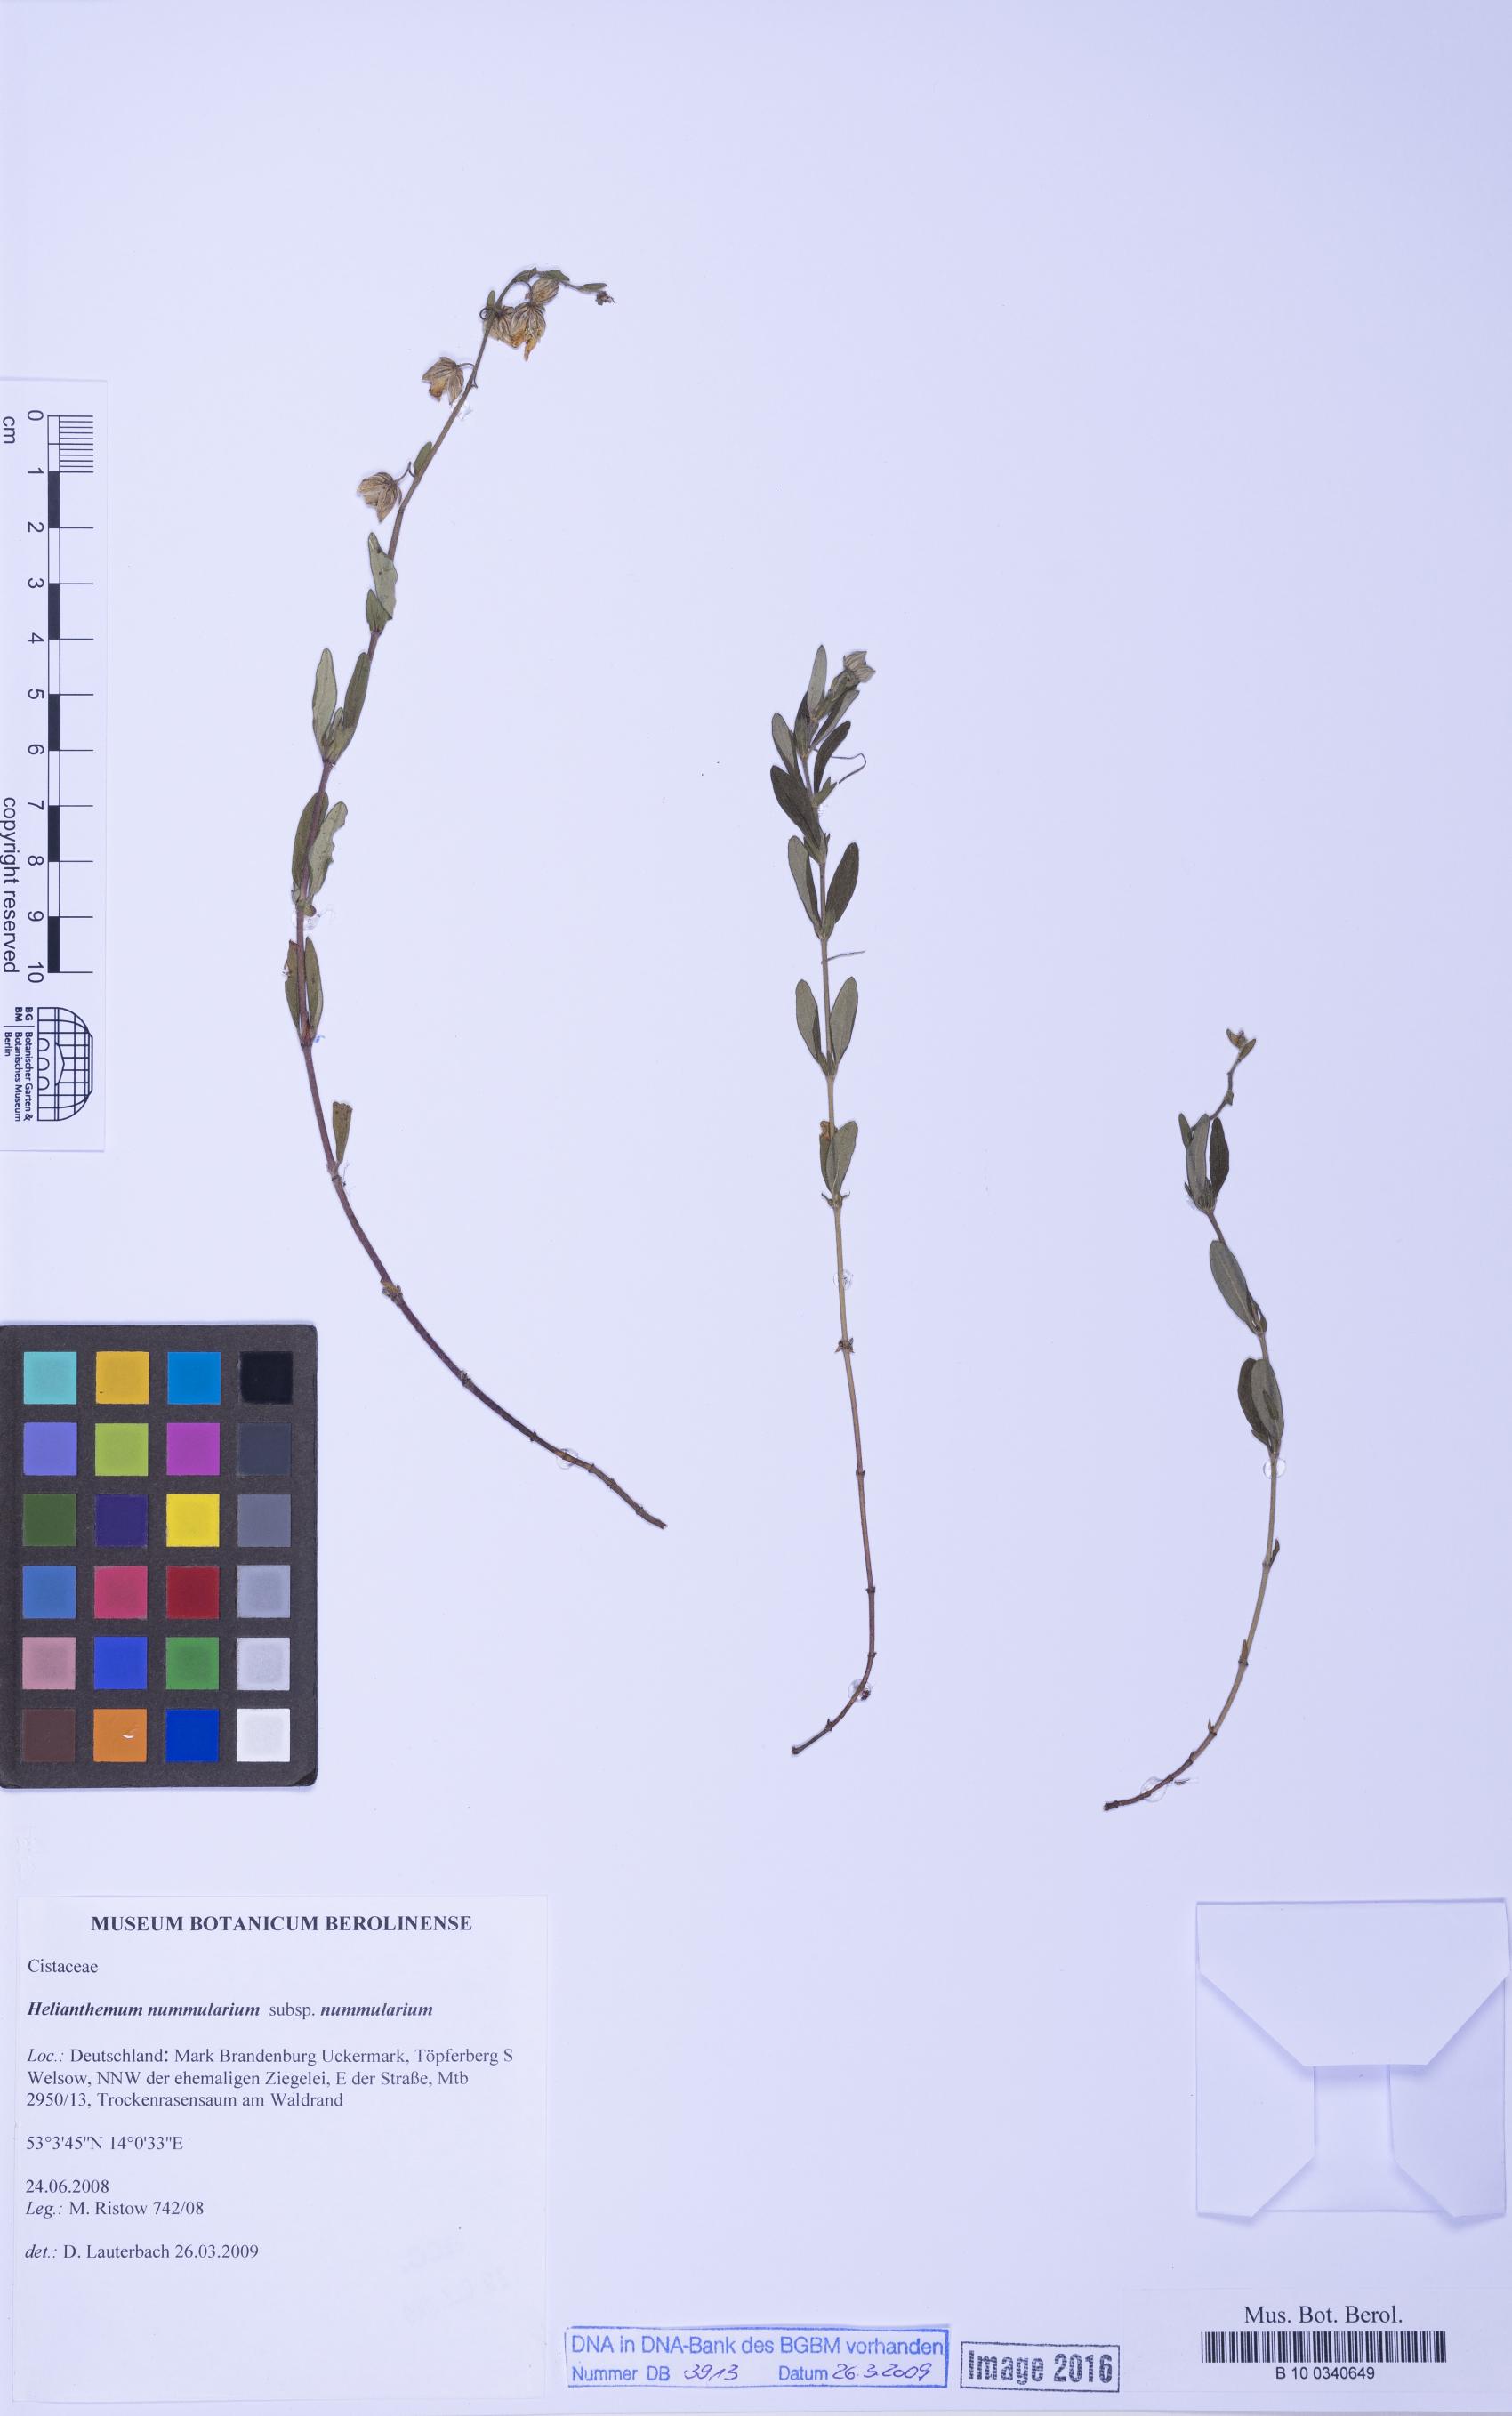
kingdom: Plantae
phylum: Tracheophyta
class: Magnoliopsida
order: Malvales
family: Cistaceae
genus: Helianthemum
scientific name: Helianthemum nummularium
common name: Common rock-rose
